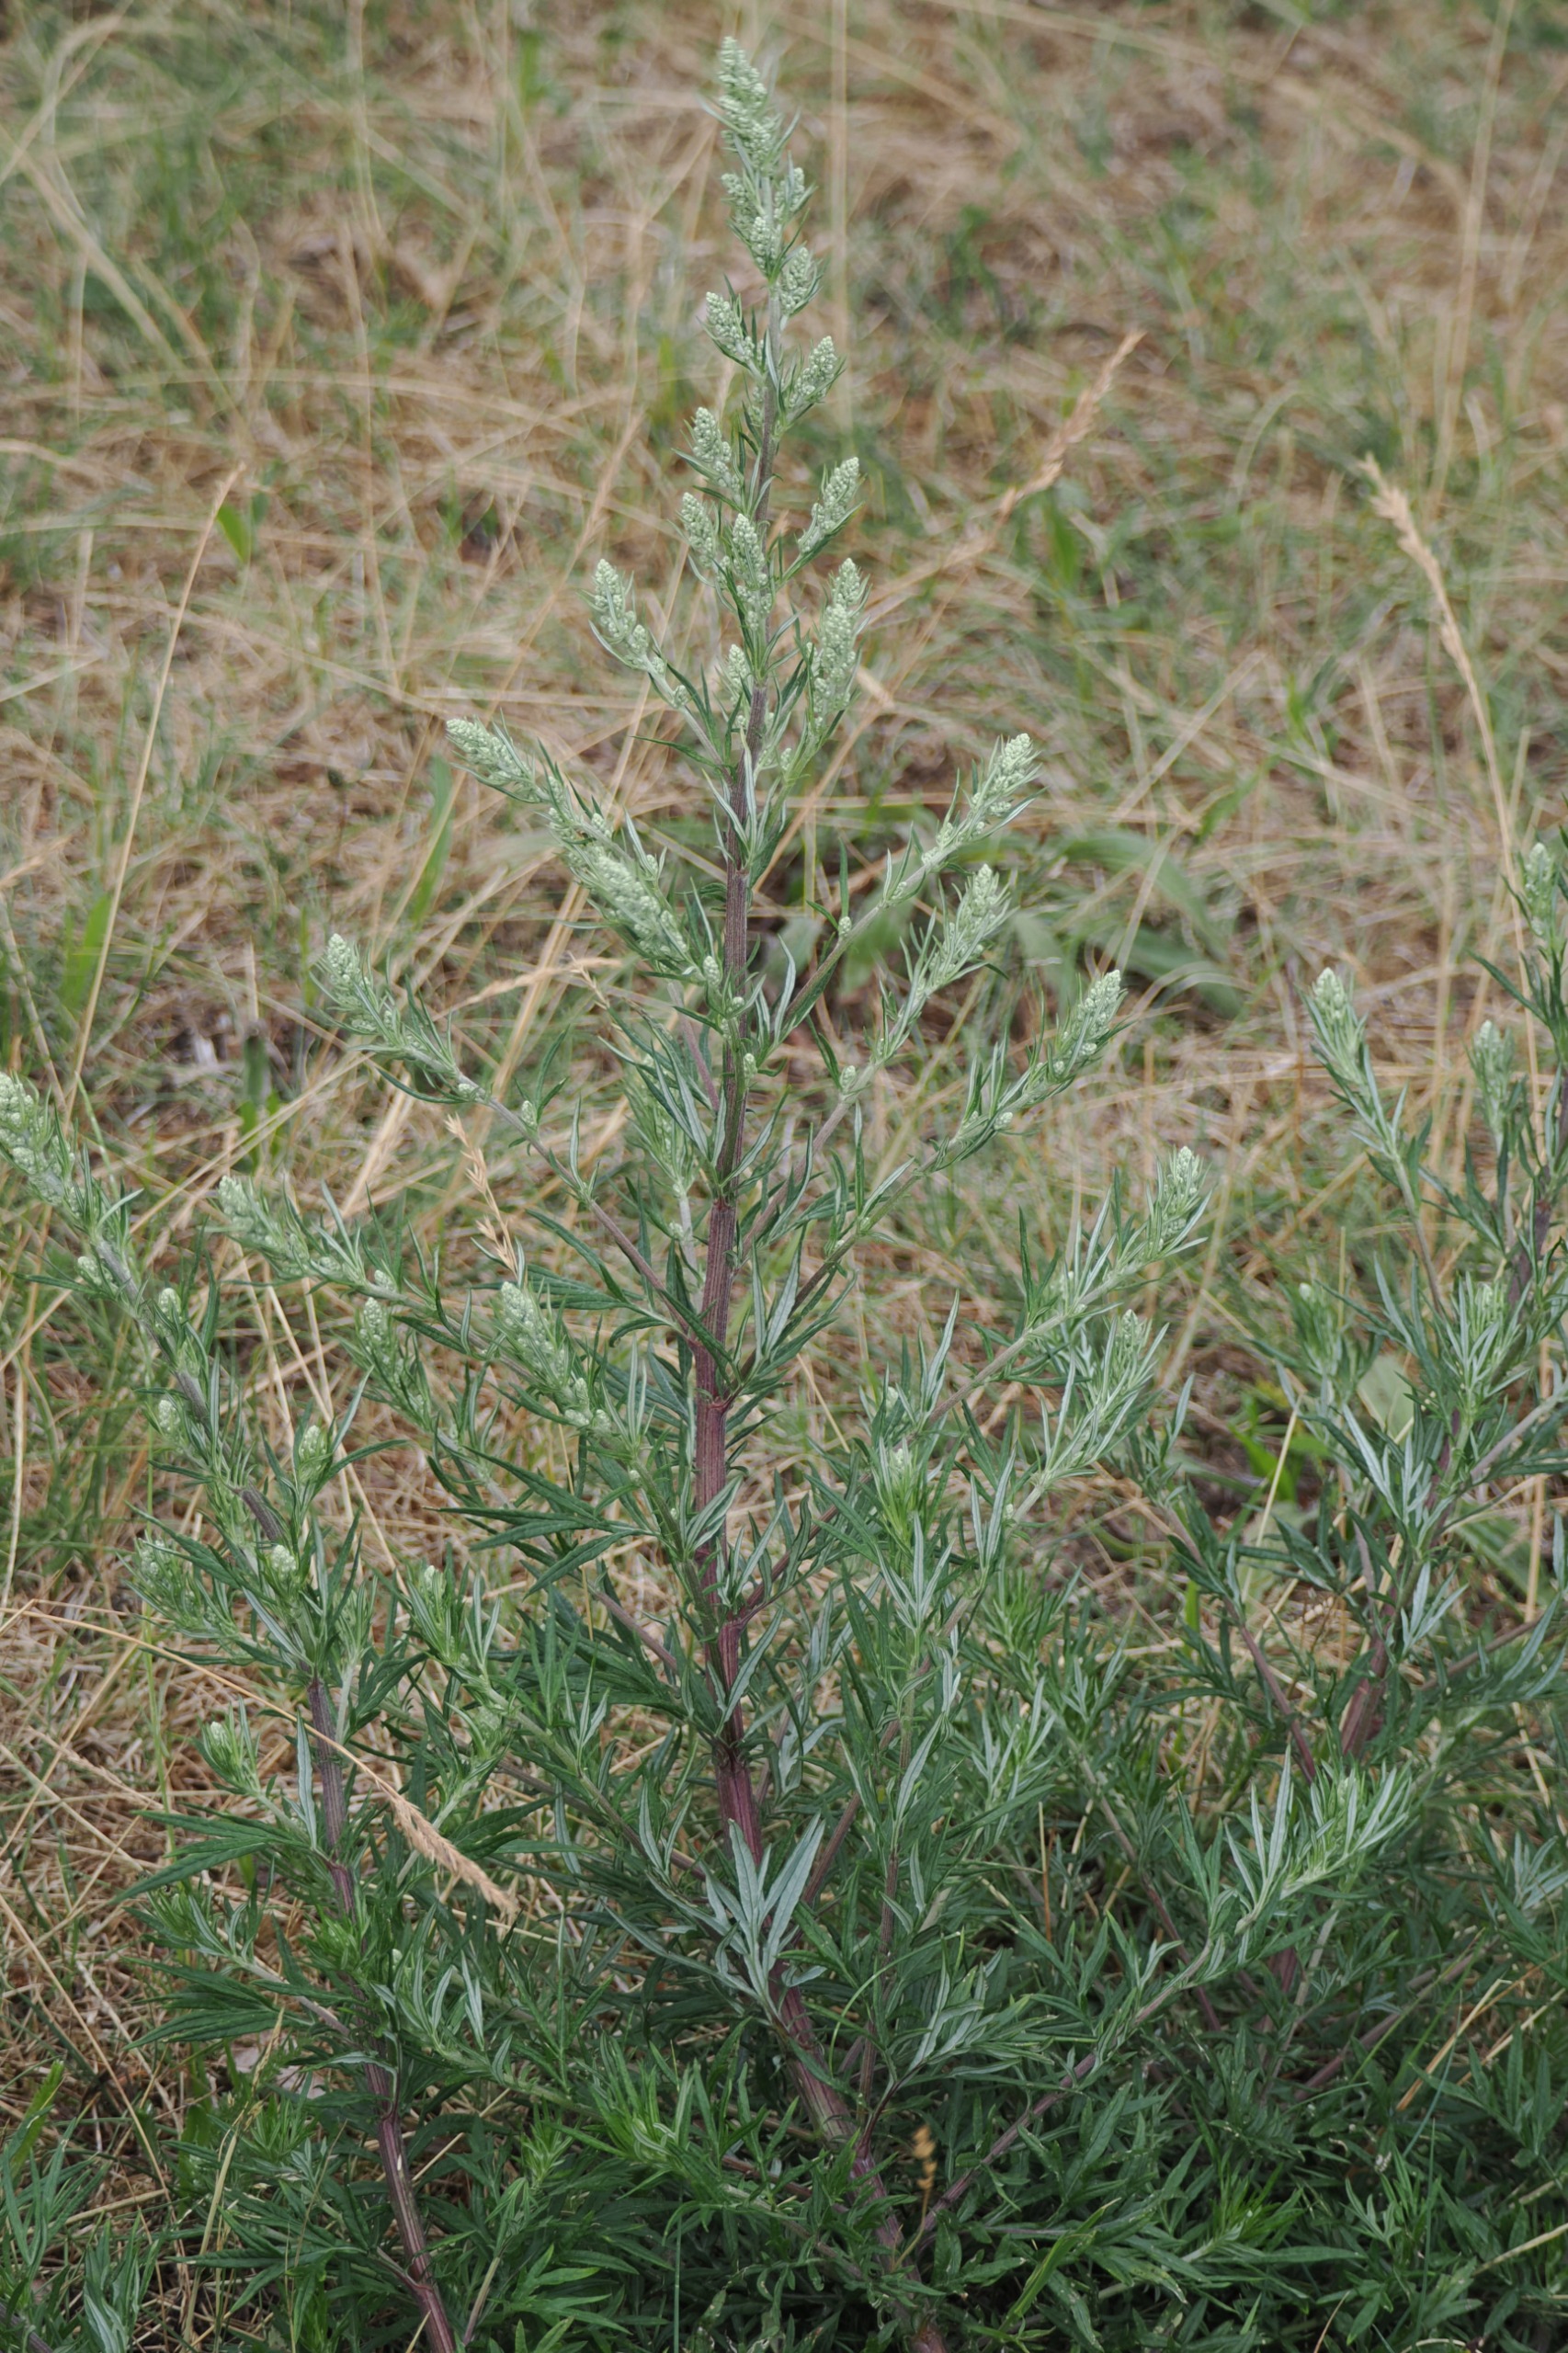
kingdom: Plantae
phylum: Tracheophyta
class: Magnoliopsida
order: Asterales
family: Asteraceae
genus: Artemisia
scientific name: Artemisia vulgaris
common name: Grå-bynke
